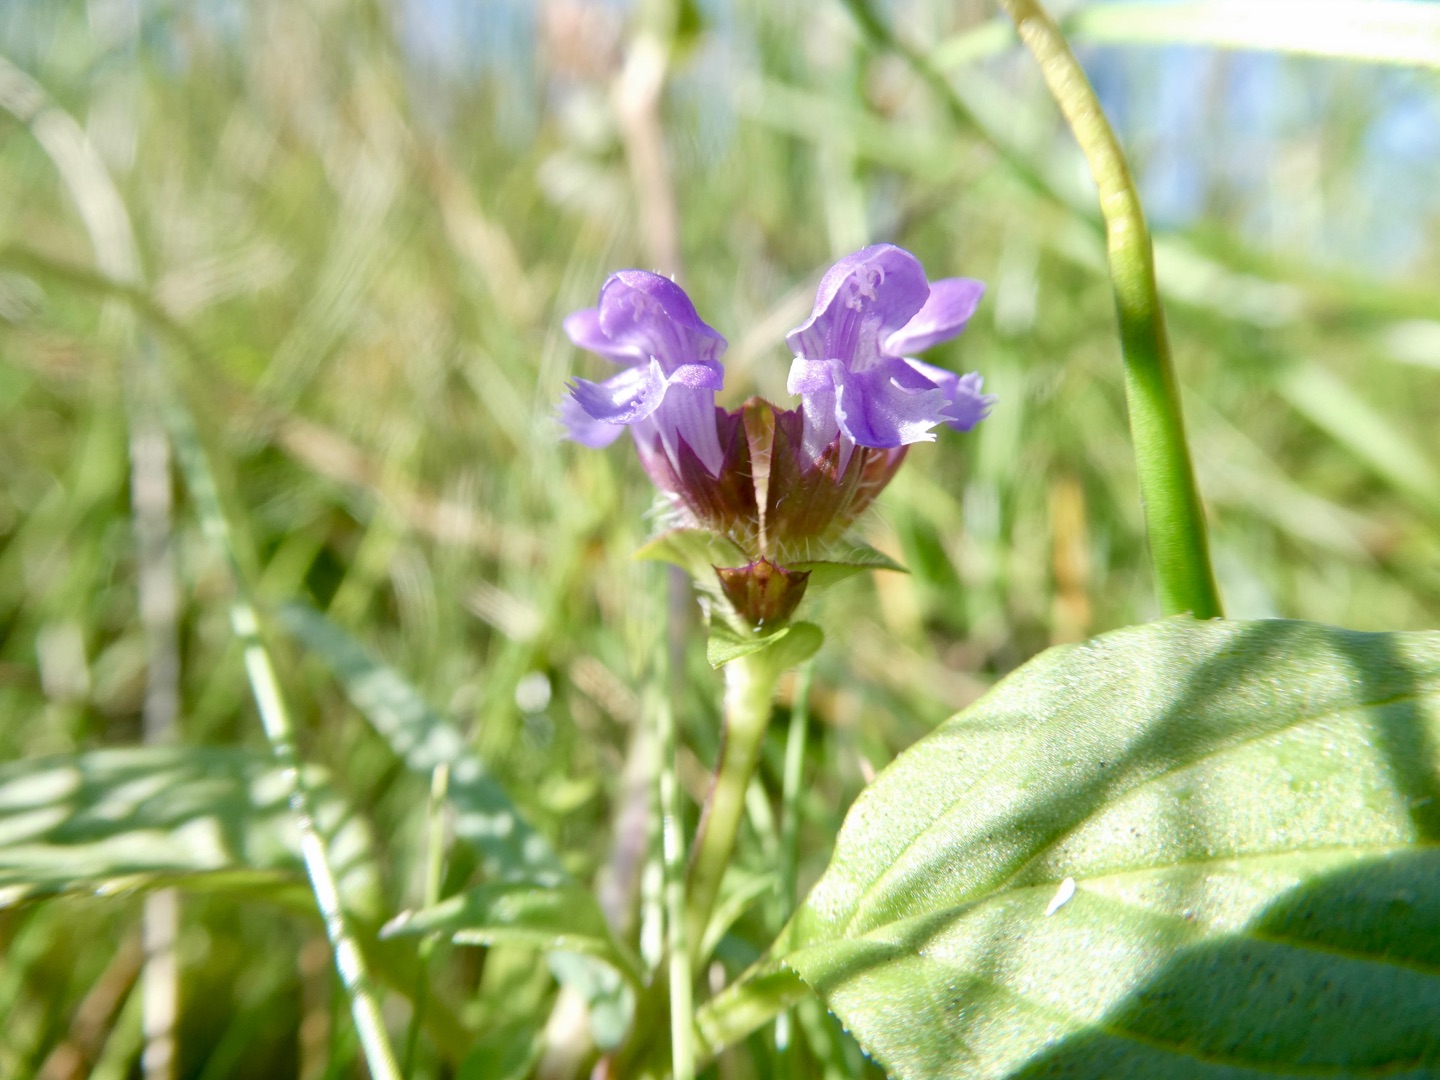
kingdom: Plantae
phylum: Tracheophyta
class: Magnoliopsida
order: Lamiales
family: Lamiaceae
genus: Prunella
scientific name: Prunella vulgaris
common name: Almindelig brunelle
